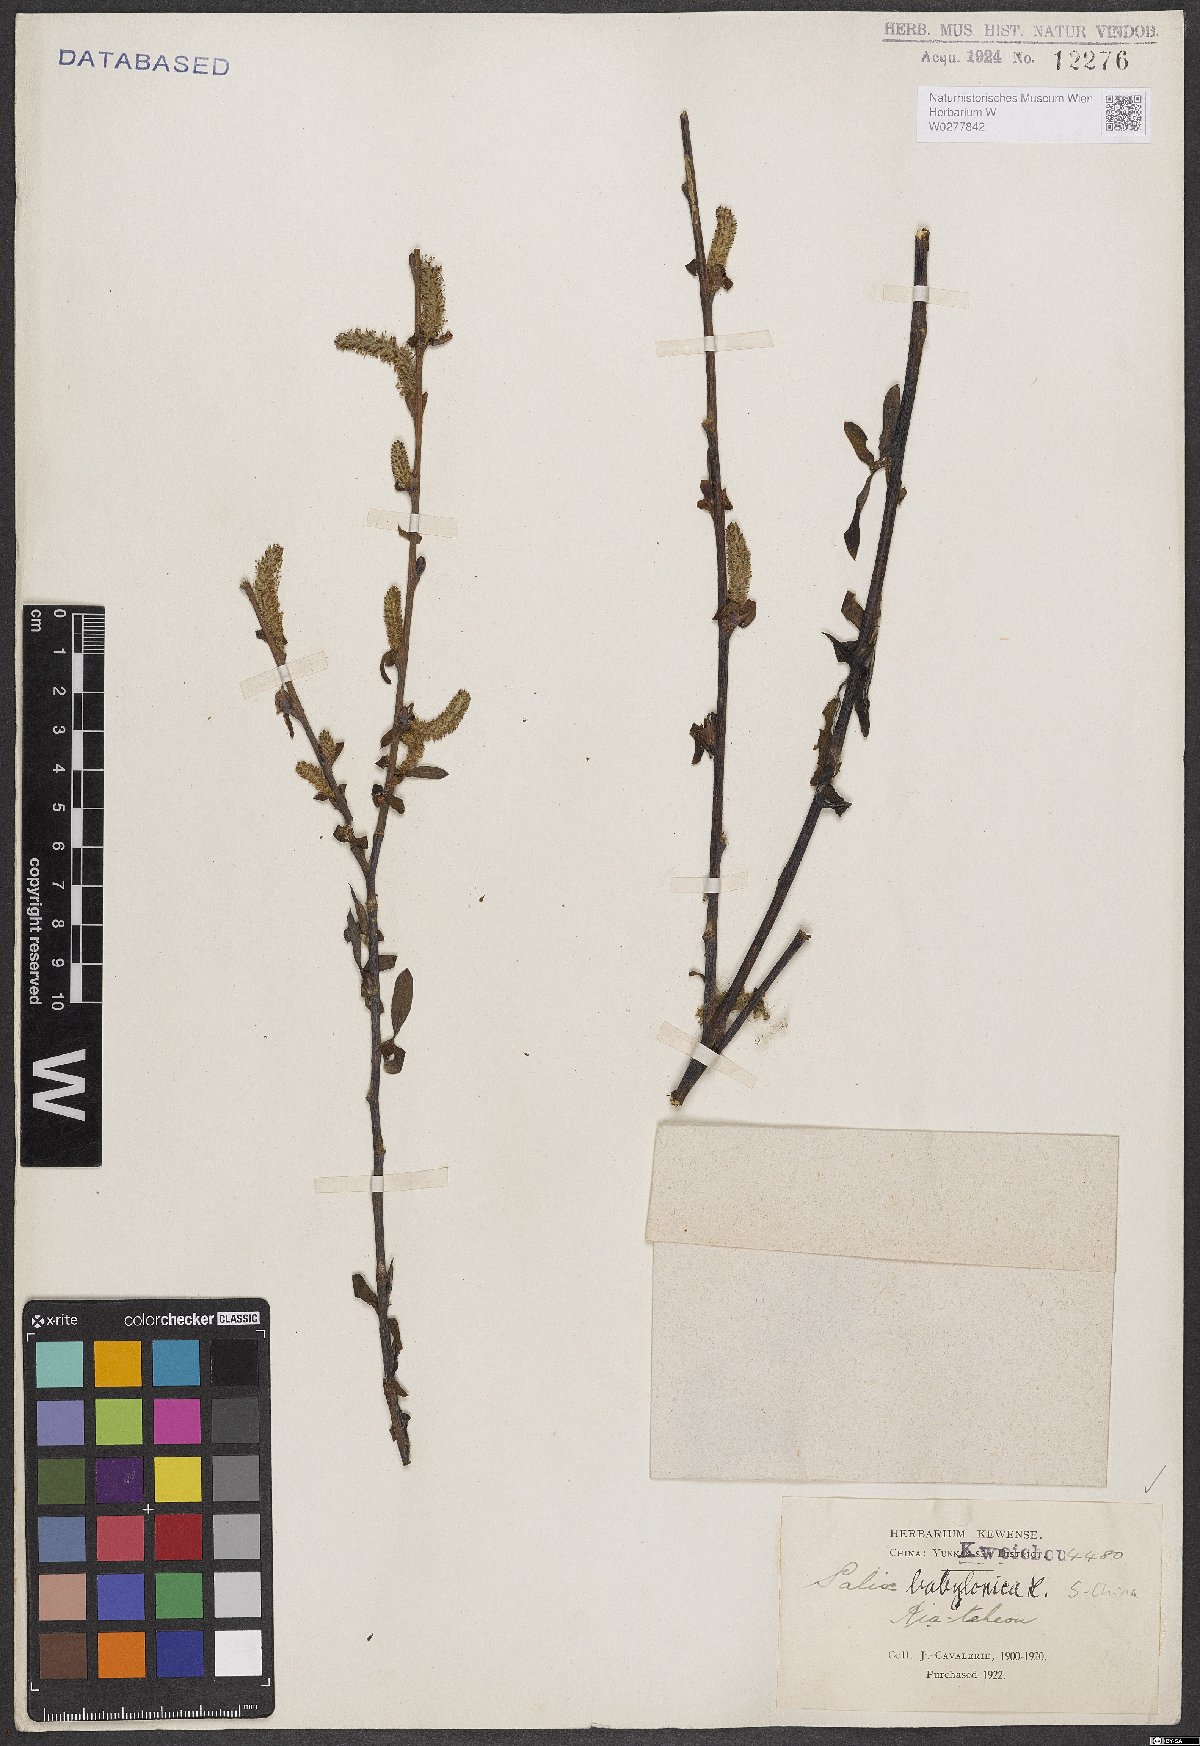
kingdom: Plantae
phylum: Tracheophyta
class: Magnoliopsida
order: Malpighiales
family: Salicaceae
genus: Salix
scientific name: Salix babylonica
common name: Weeping willow
